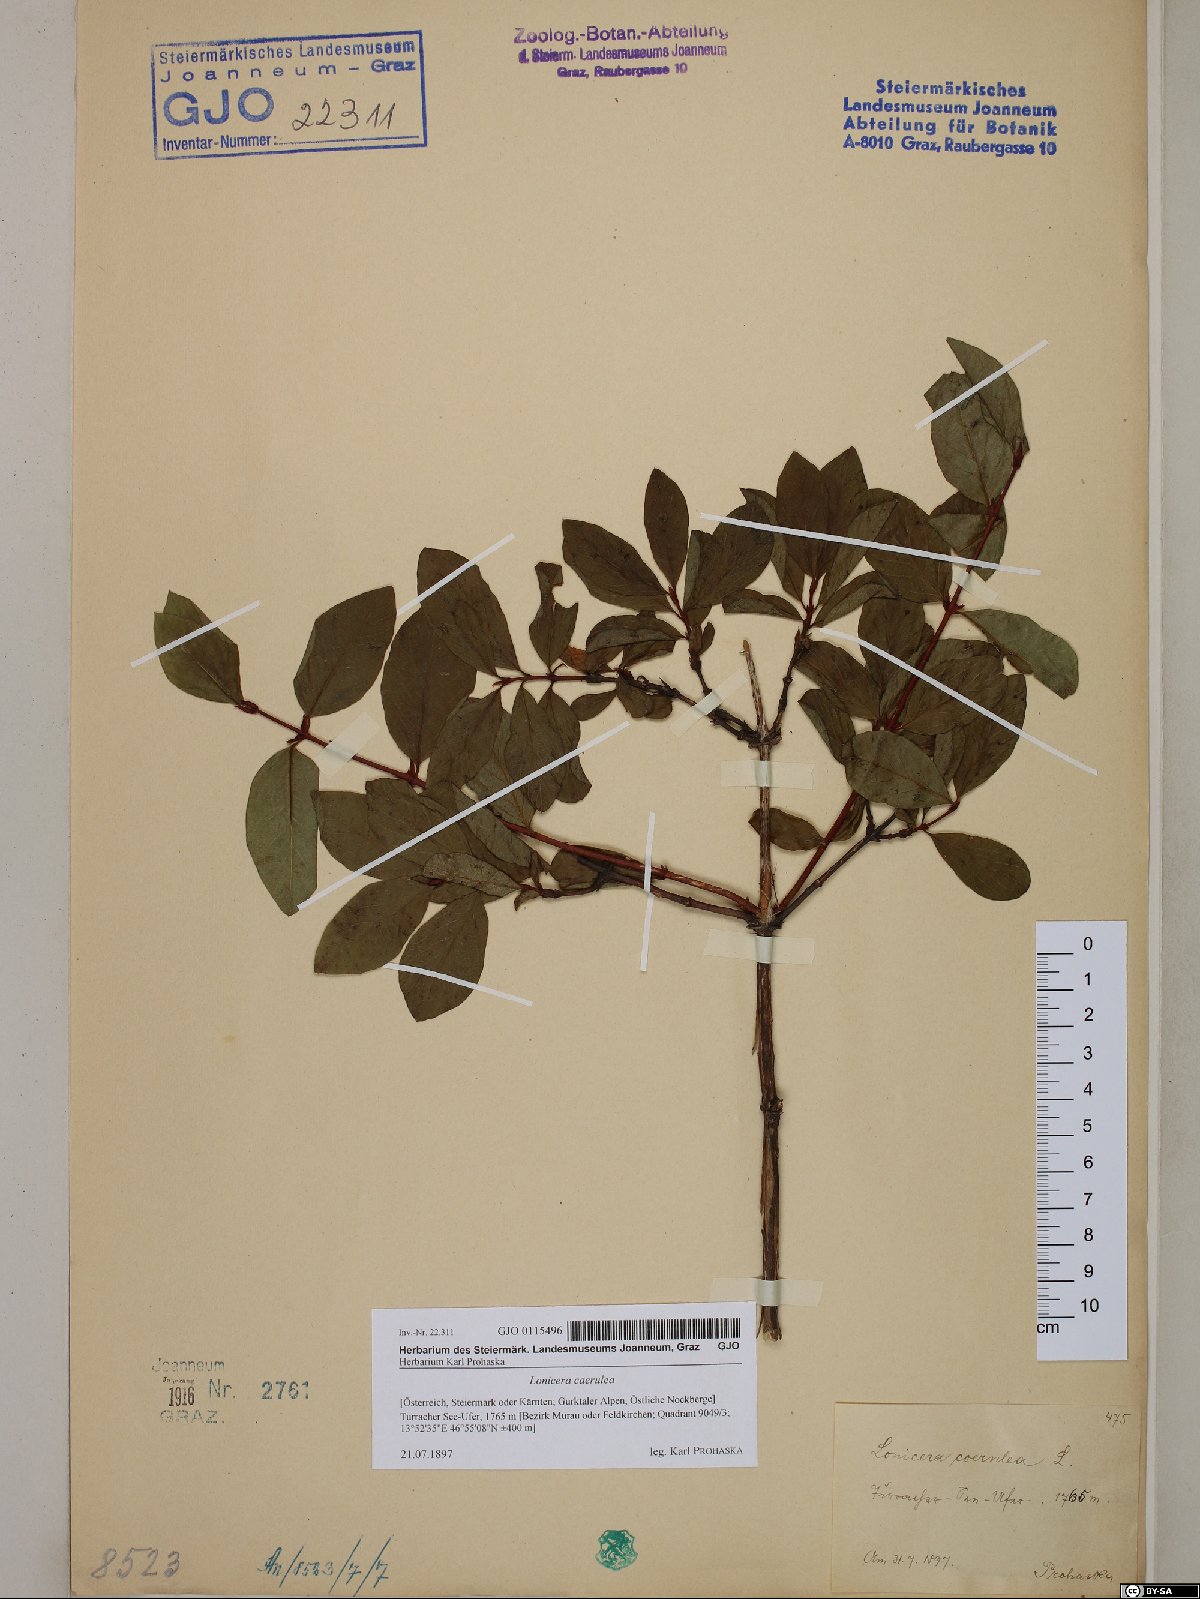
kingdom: Plantae
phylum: Tracheophyta
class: Magnoliopsida
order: Dipsacales
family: Caprifoliaceae
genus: Lonicera
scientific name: Lonicera caerulea
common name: Blue honeysuckle
